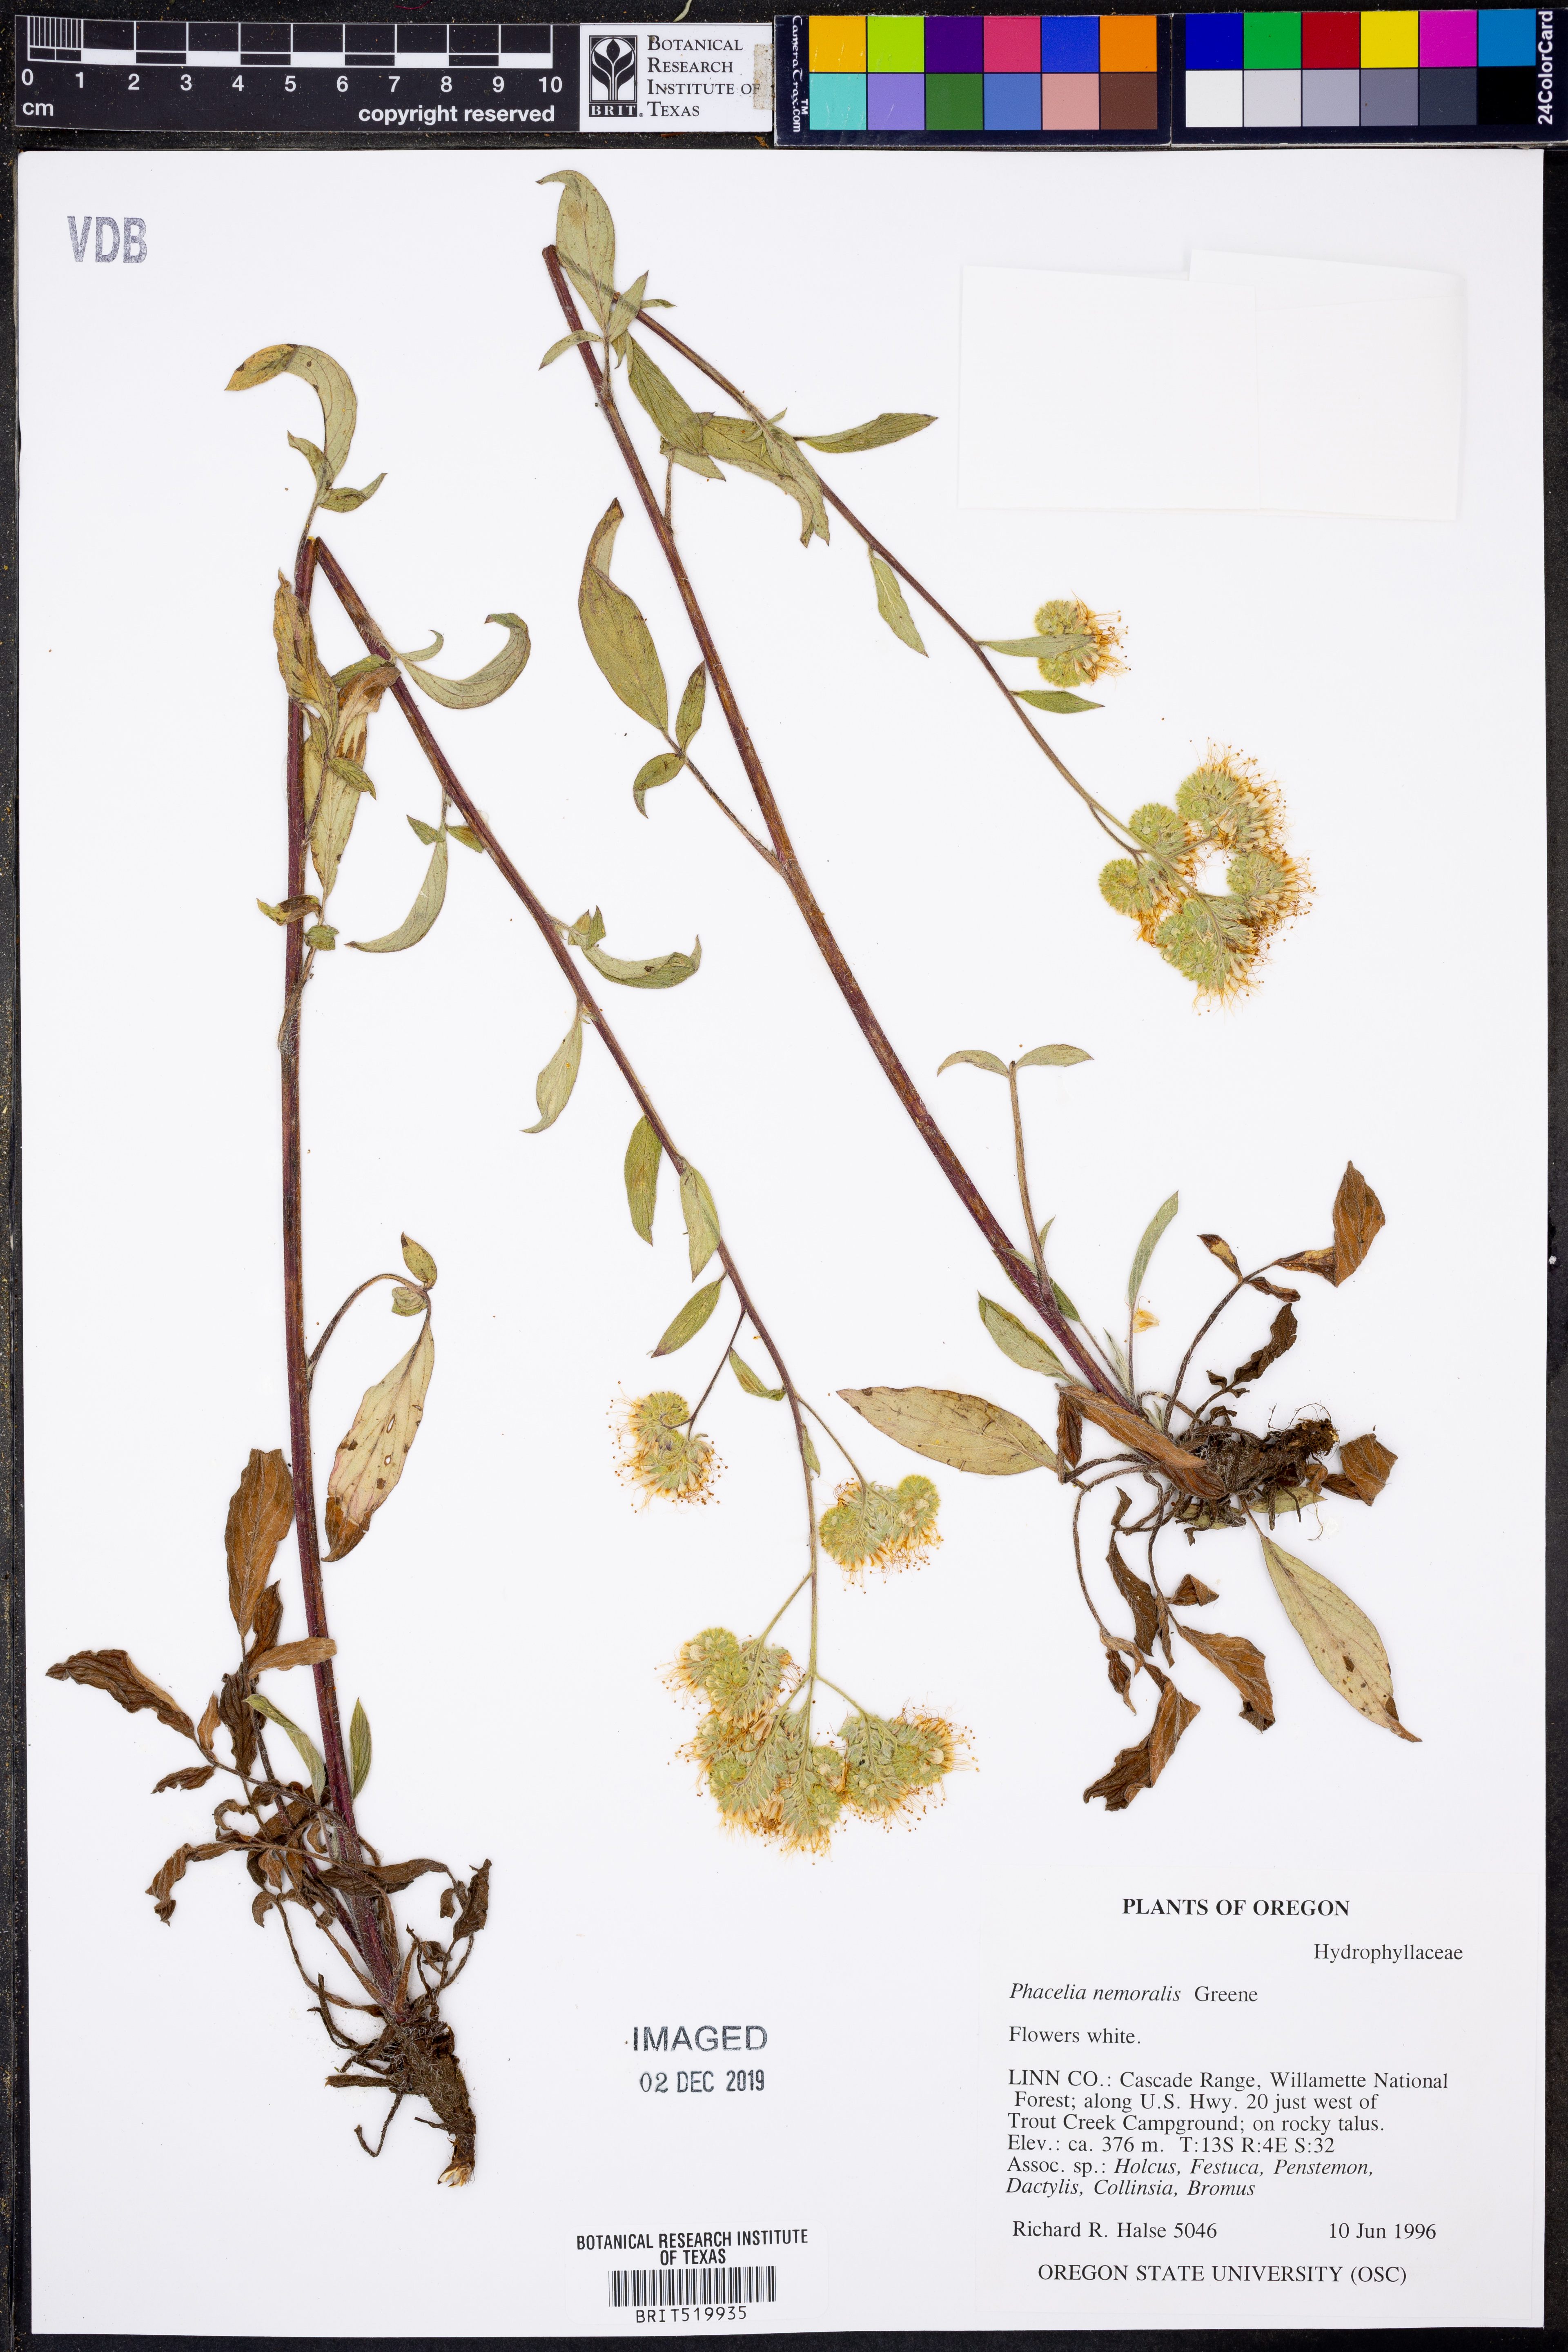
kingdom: Plantae
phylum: Tracheophyta
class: Magnoliopsida
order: Boraginales
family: Hydrophyllaceae
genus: Phacelia
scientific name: Phacelia nemoralis
